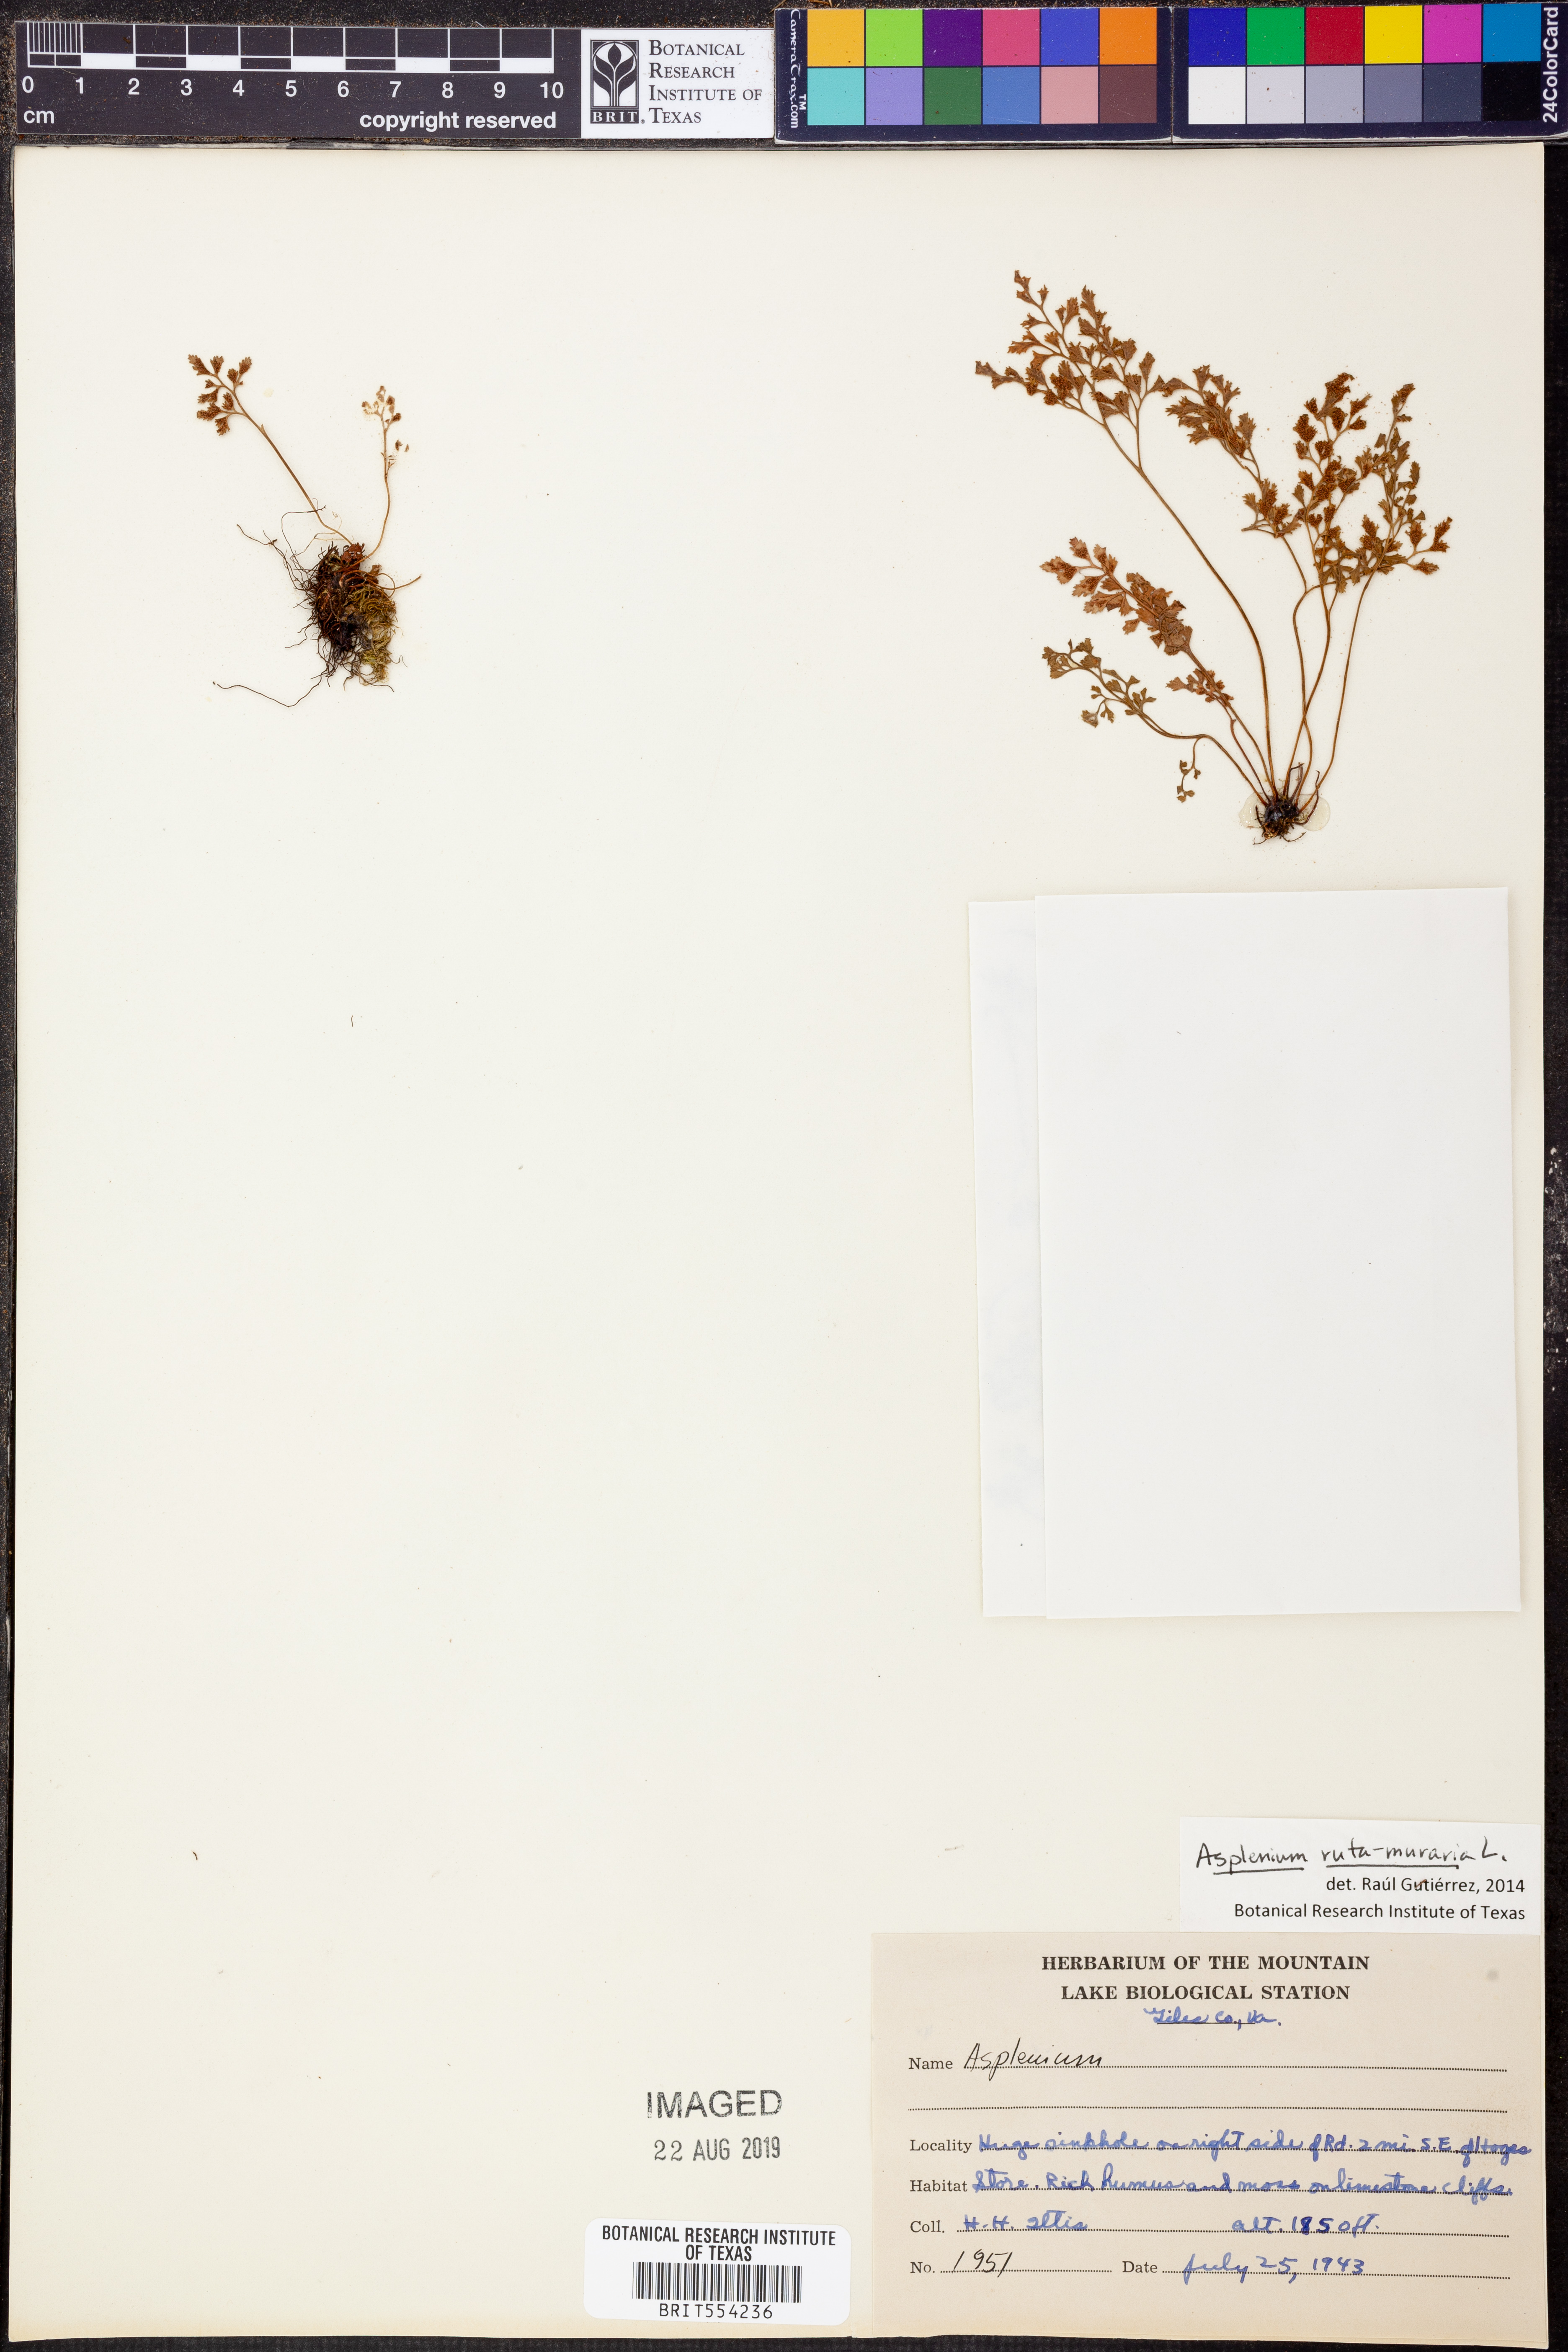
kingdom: Plantae
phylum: Tracheophyta
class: Polypodiopsida
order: Polypodiales
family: Aspleniaceae
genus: Asplenium
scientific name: Asplenium ruta-muraria
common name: Wall-rue
